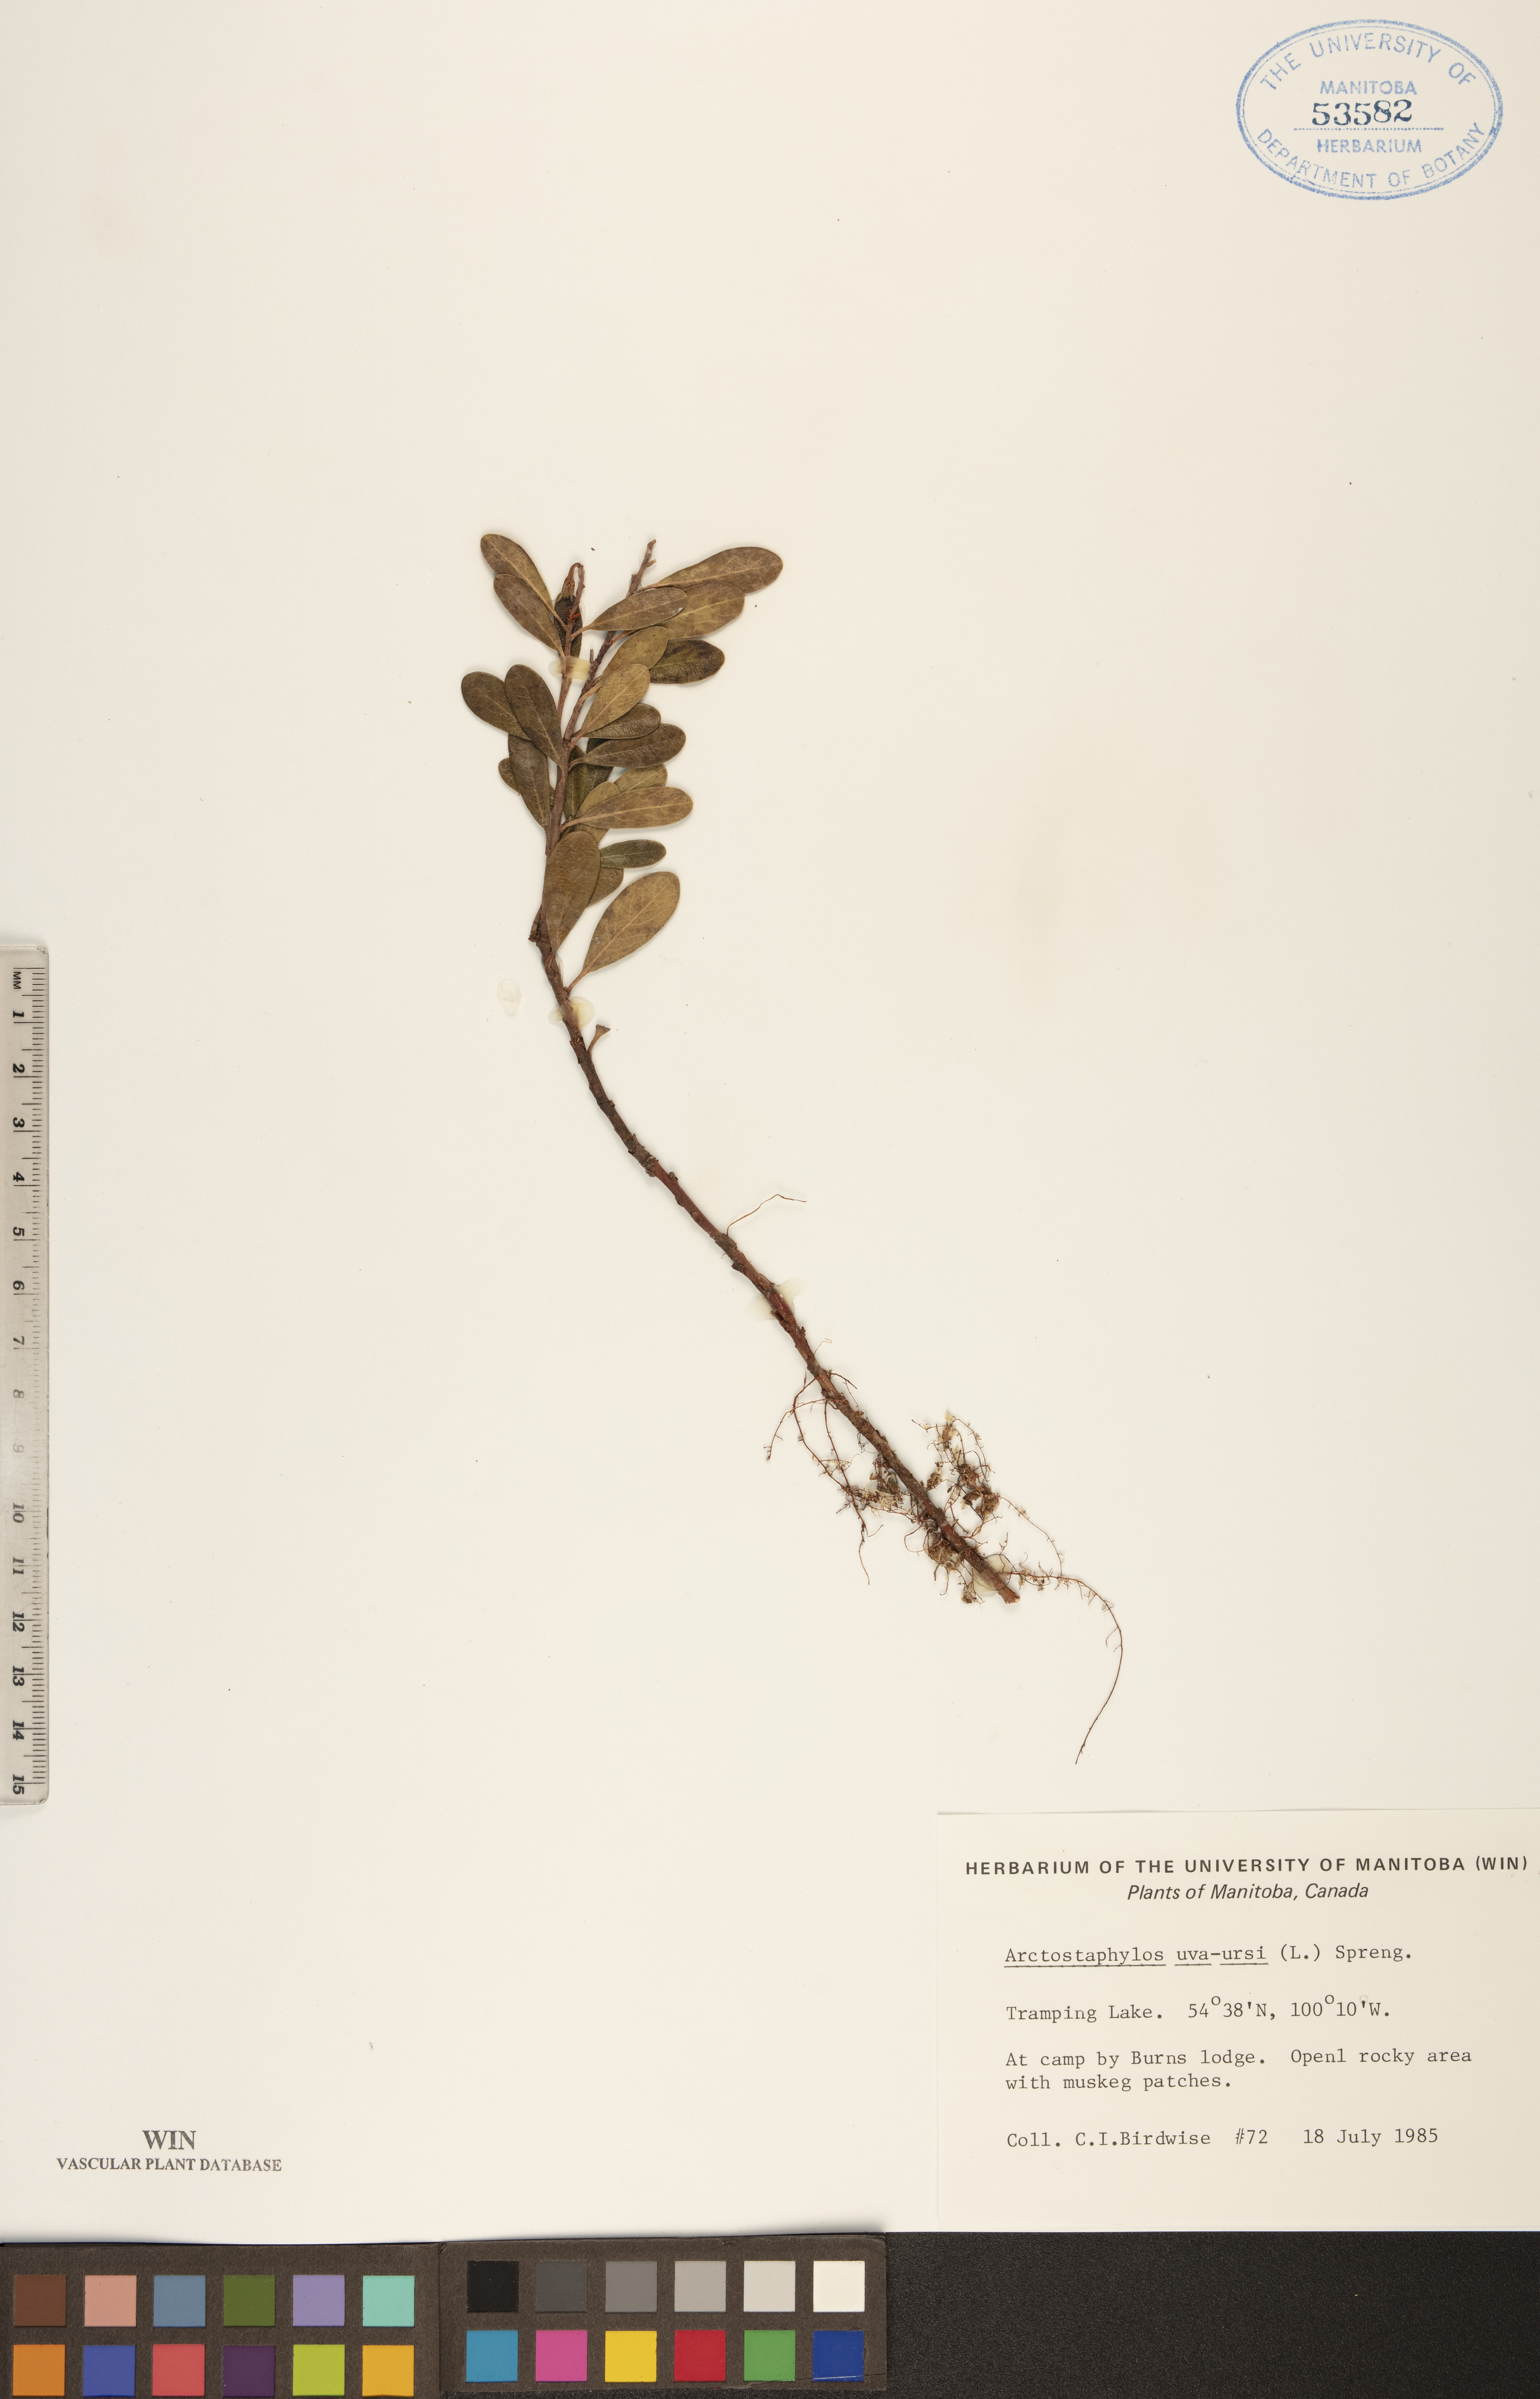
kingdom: Plantae
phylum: Tracheophyta
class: Magnoliopsida
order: Ericales
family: Ericaceae
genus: Arctostaphylos
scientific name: Arctostaphylos uva-ursi
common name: Bearberry
